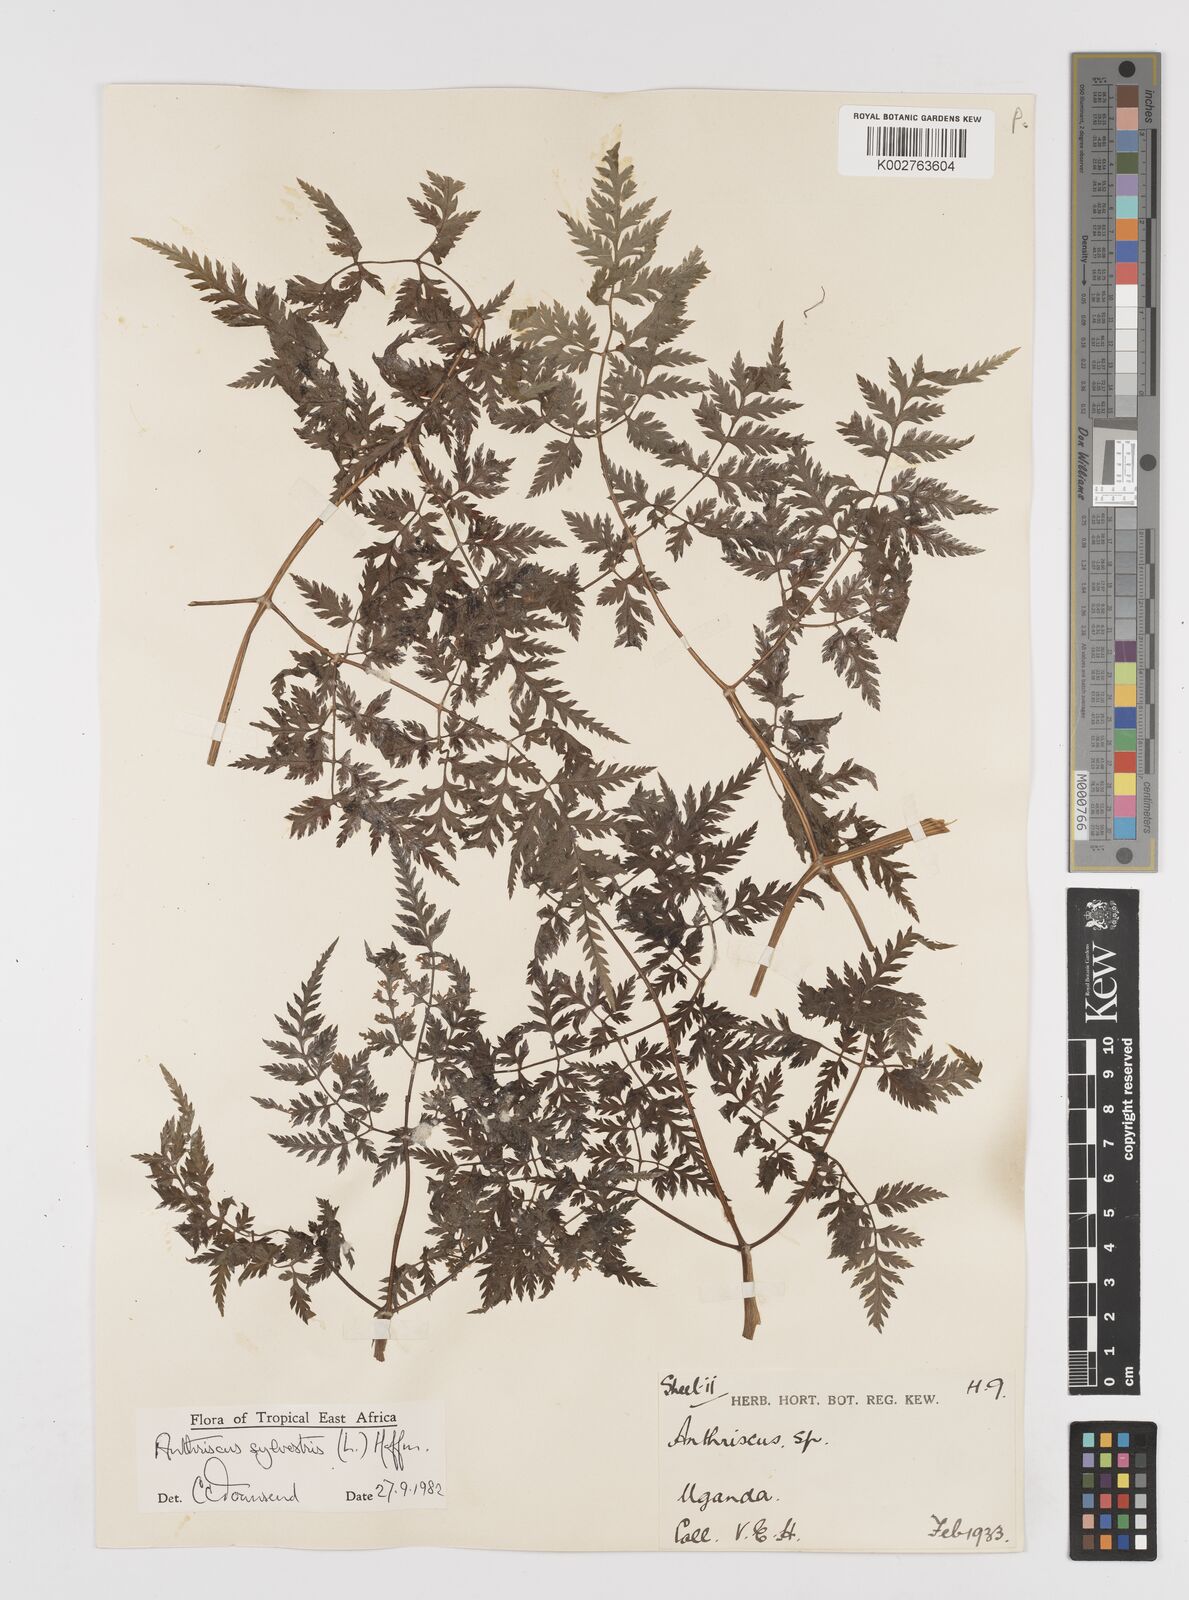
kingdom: Plantae
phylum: Tracheophyta
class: Magnoliopsida
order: Apiales
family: Apiaceae
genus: Anthriscus
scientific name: Anthriscus sylvestris
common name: Cow parsley
